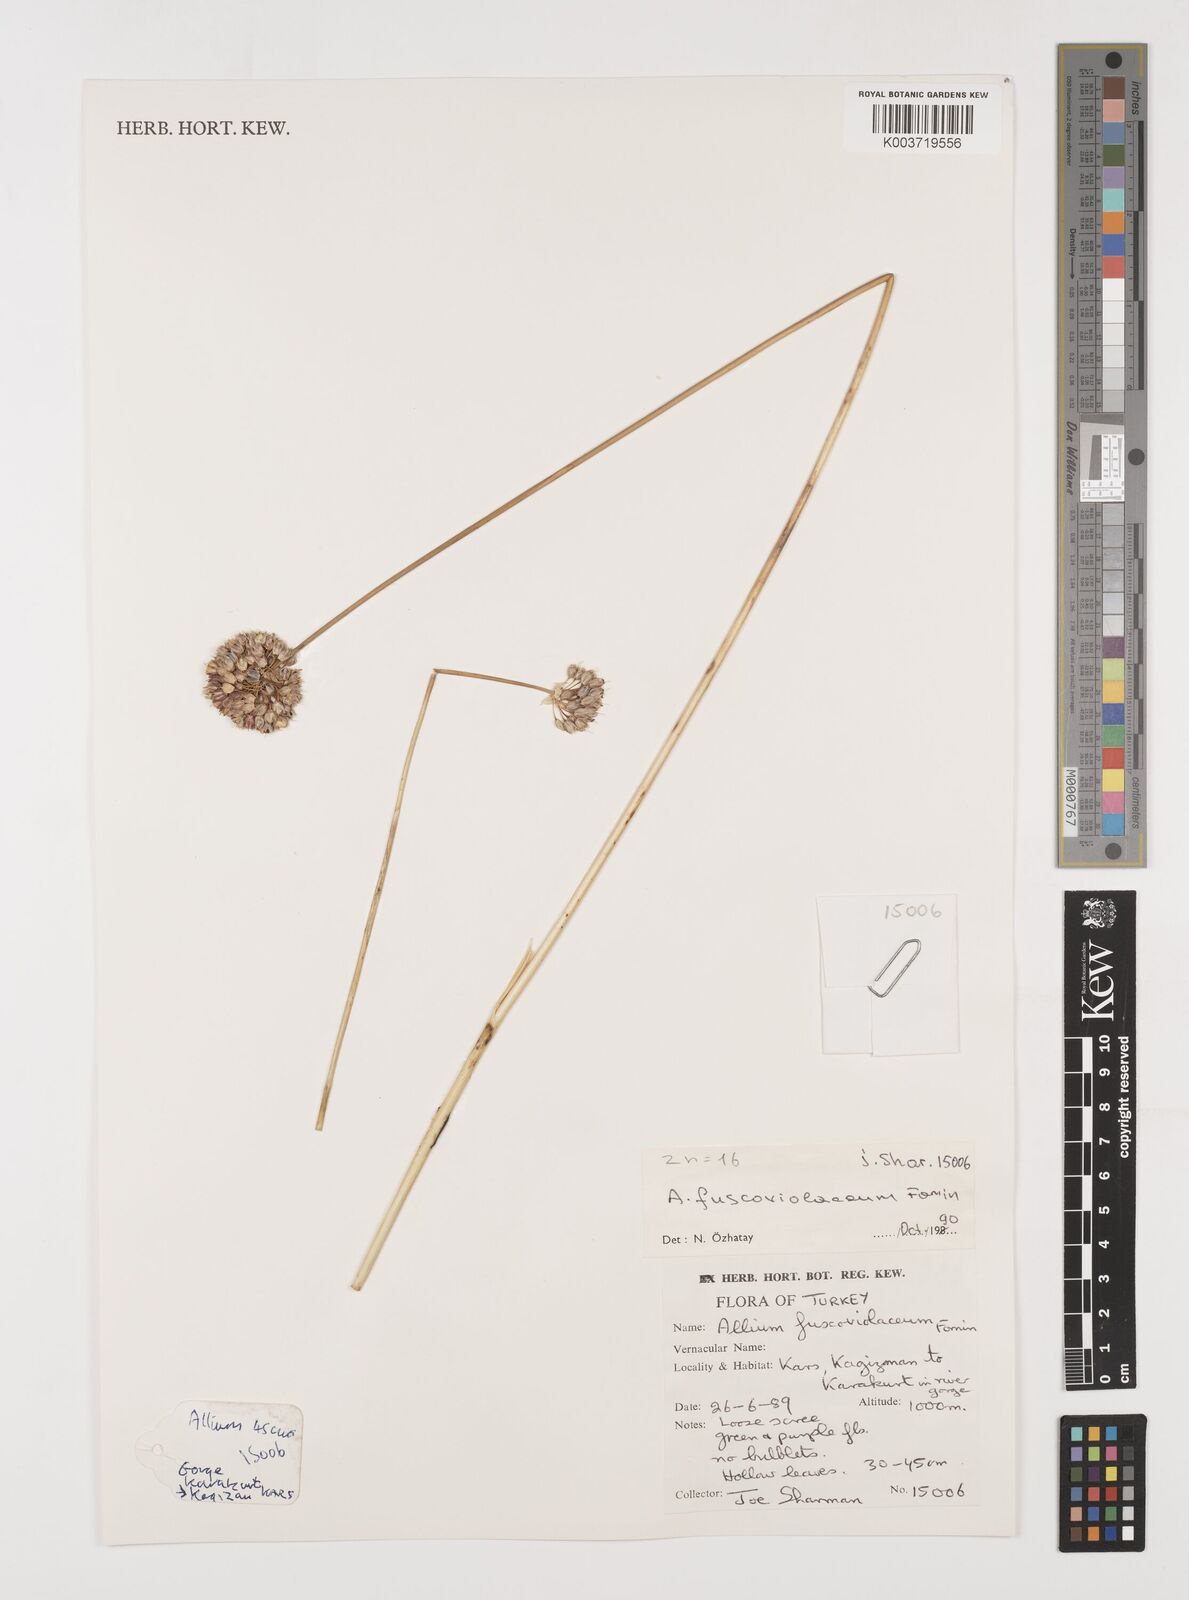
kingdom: Plantae
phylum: Tracheophyta
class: Liliopsida
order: Asparagales
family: Amaryllidaceae
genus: Allium
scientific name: Allium fuscoviolaceum
